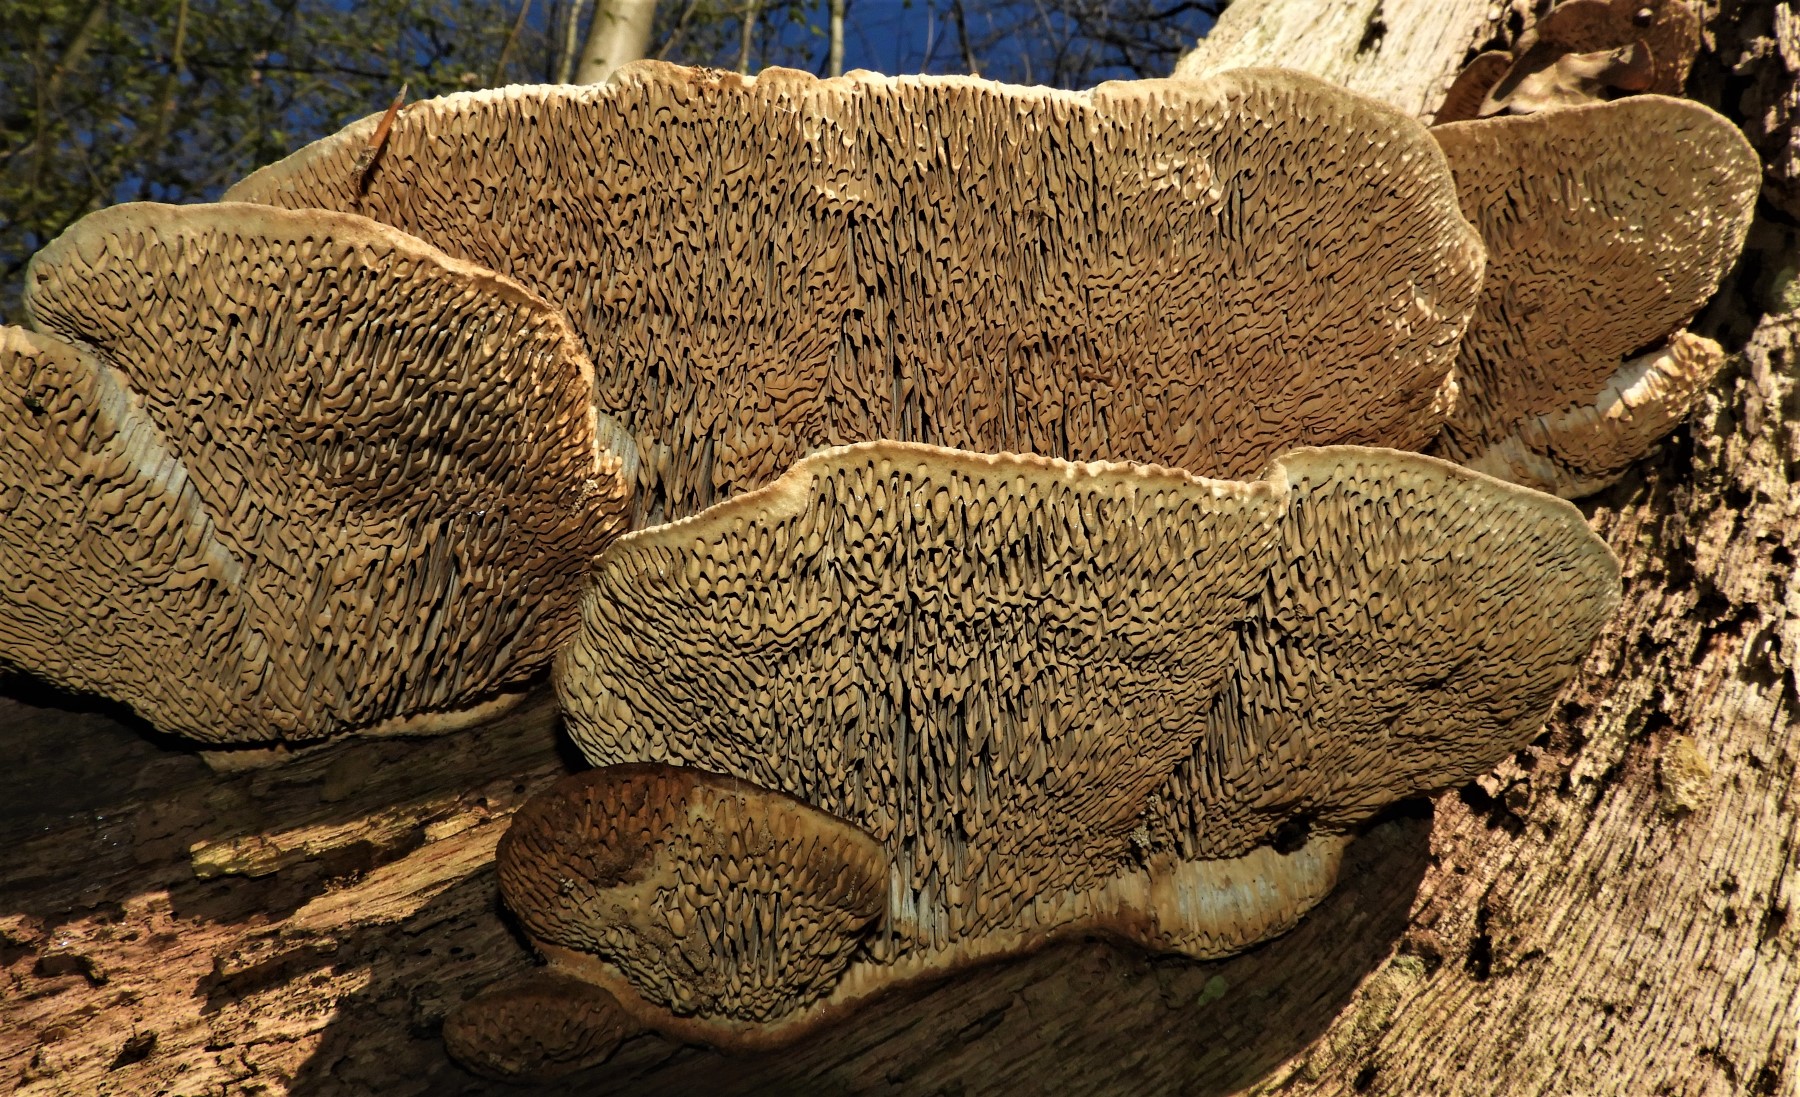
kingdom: Fungi
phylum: Basidiomycota
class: Agaricomycetes
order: Polyporales
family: Fomitopsidaceae
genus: Daedalea
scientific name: Daedalea quercina
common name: ege-labyrintsvamp
